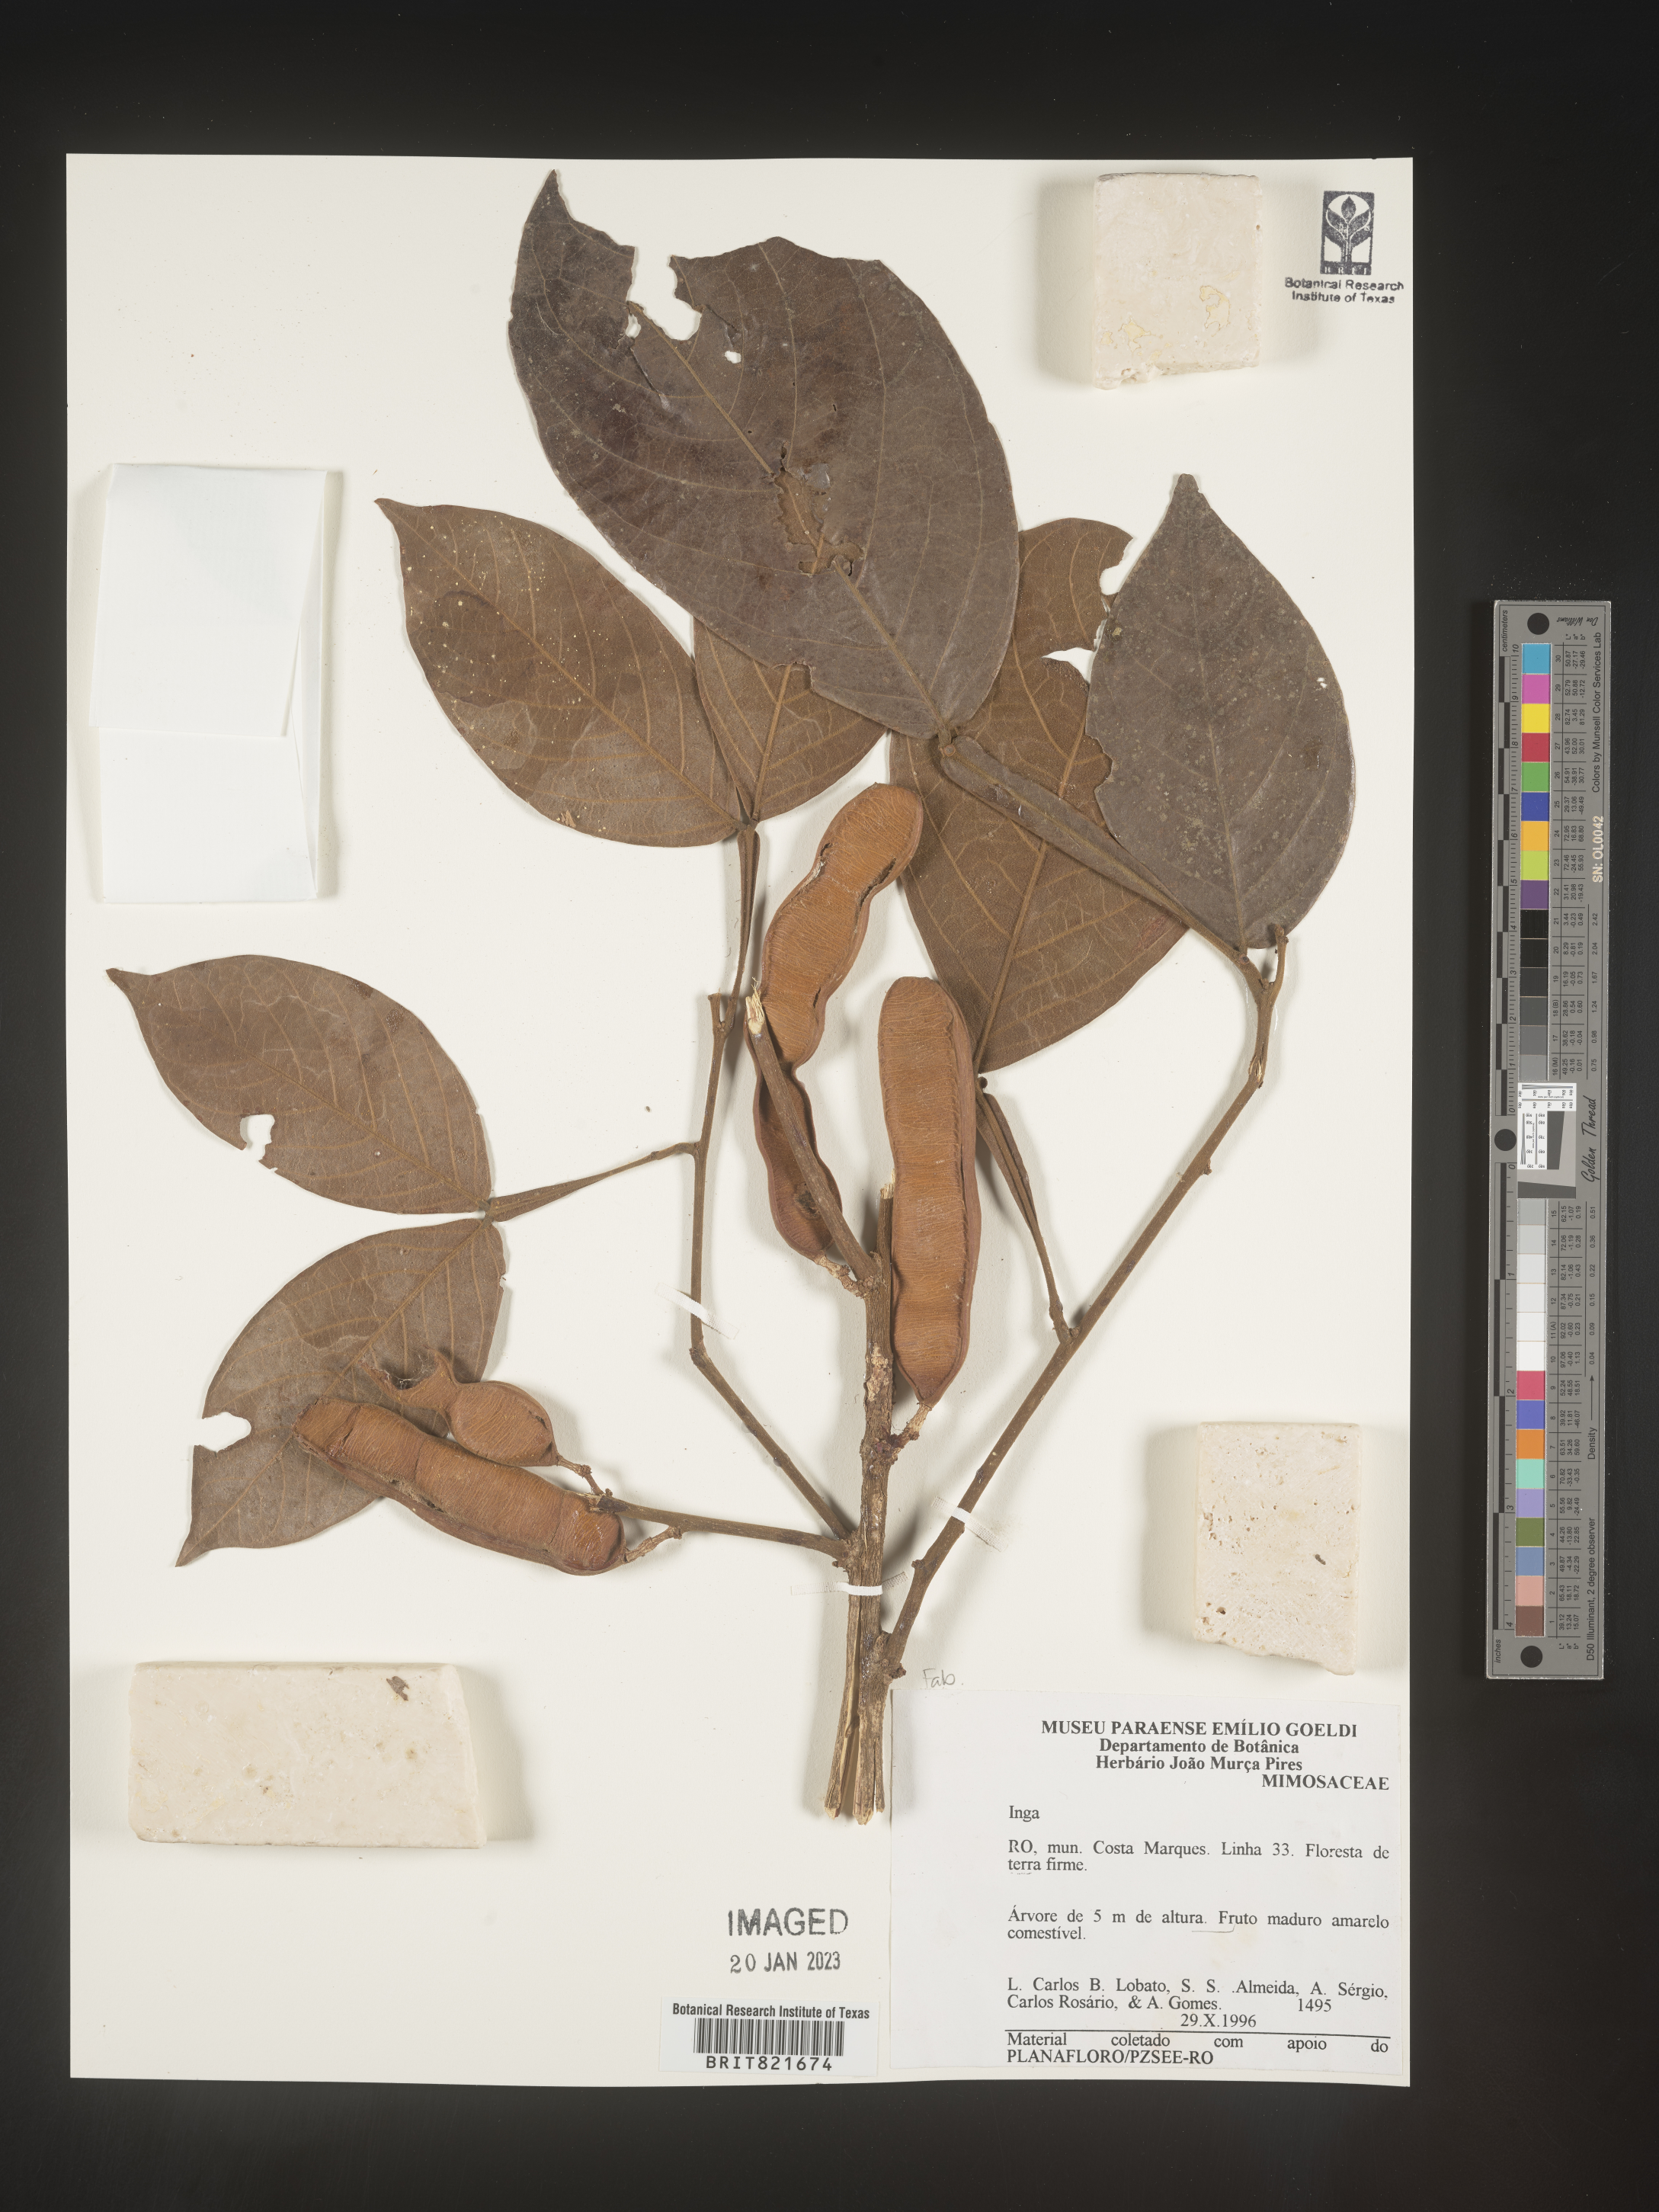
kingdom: Plantae
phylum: Tracheophyta
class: Magnoliopsida
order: Fabales
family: Fabaceae
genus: Inga
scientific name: Inga
